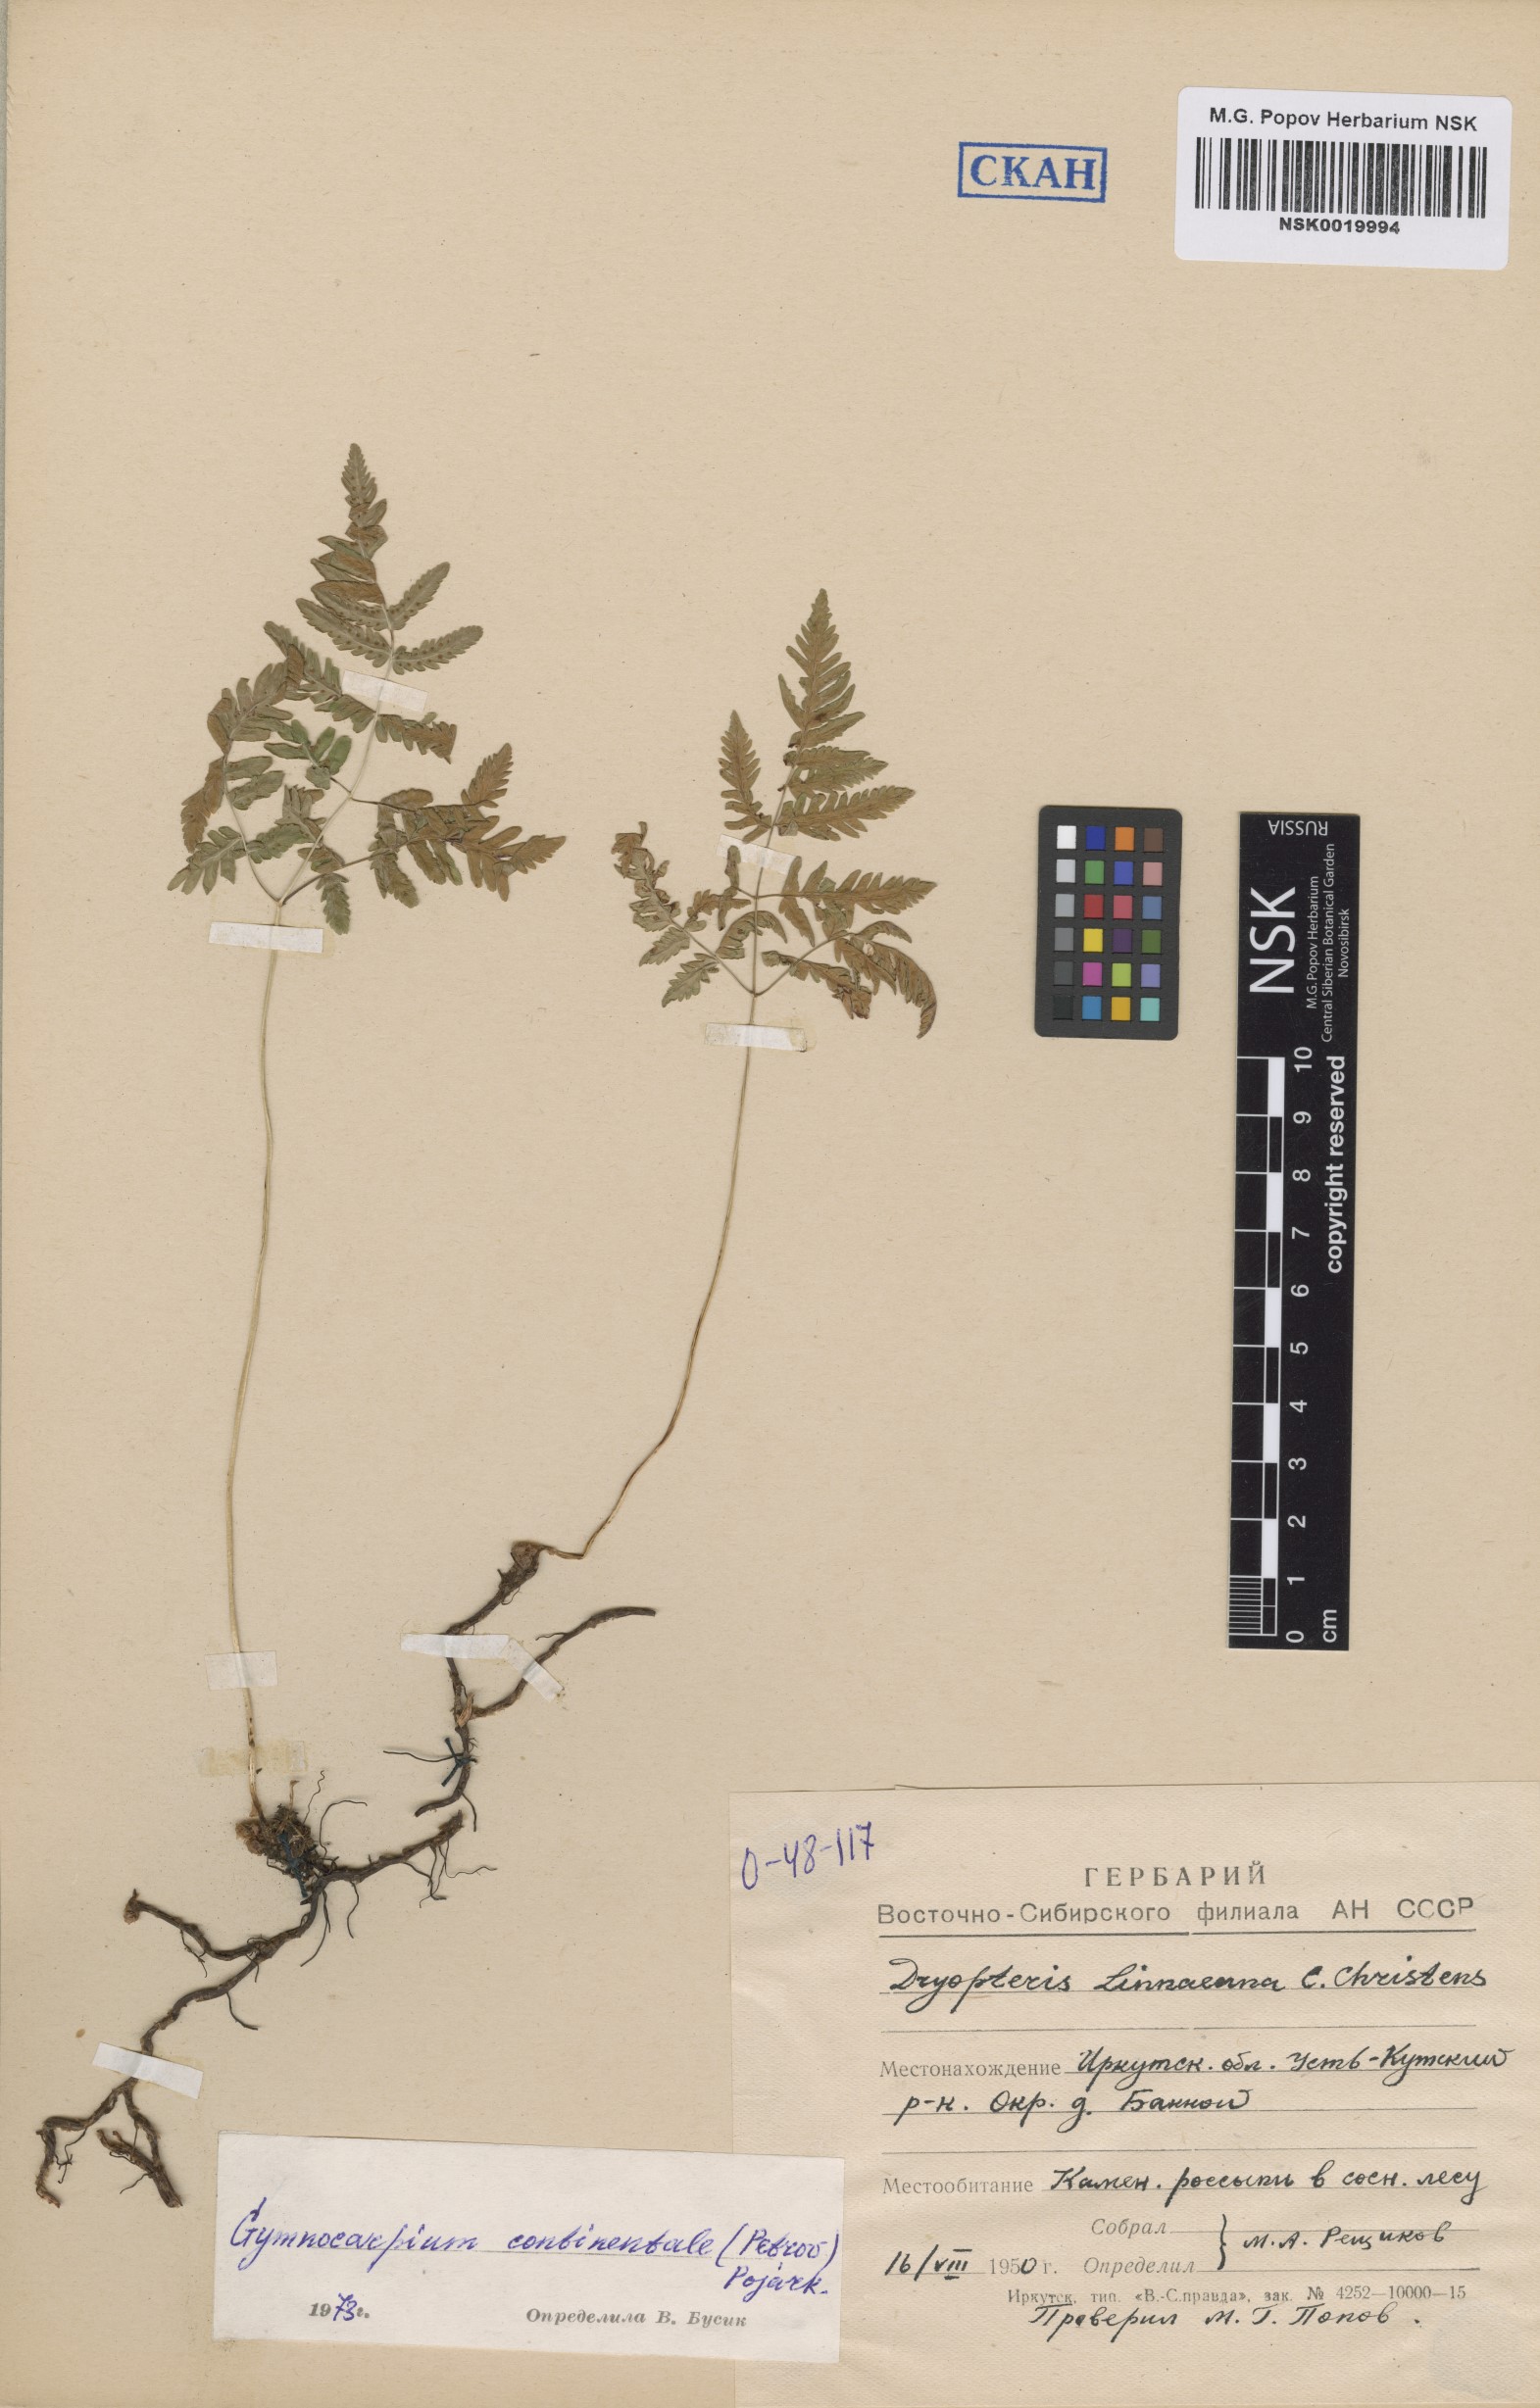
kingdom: Plantae
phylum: Tracheophyta
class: Polypodiopsida
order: Polypodiales
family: Cystopteridaceae
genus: Gymnocarpium
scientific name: Gymnocarpium continentale
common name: Asian oak fern
